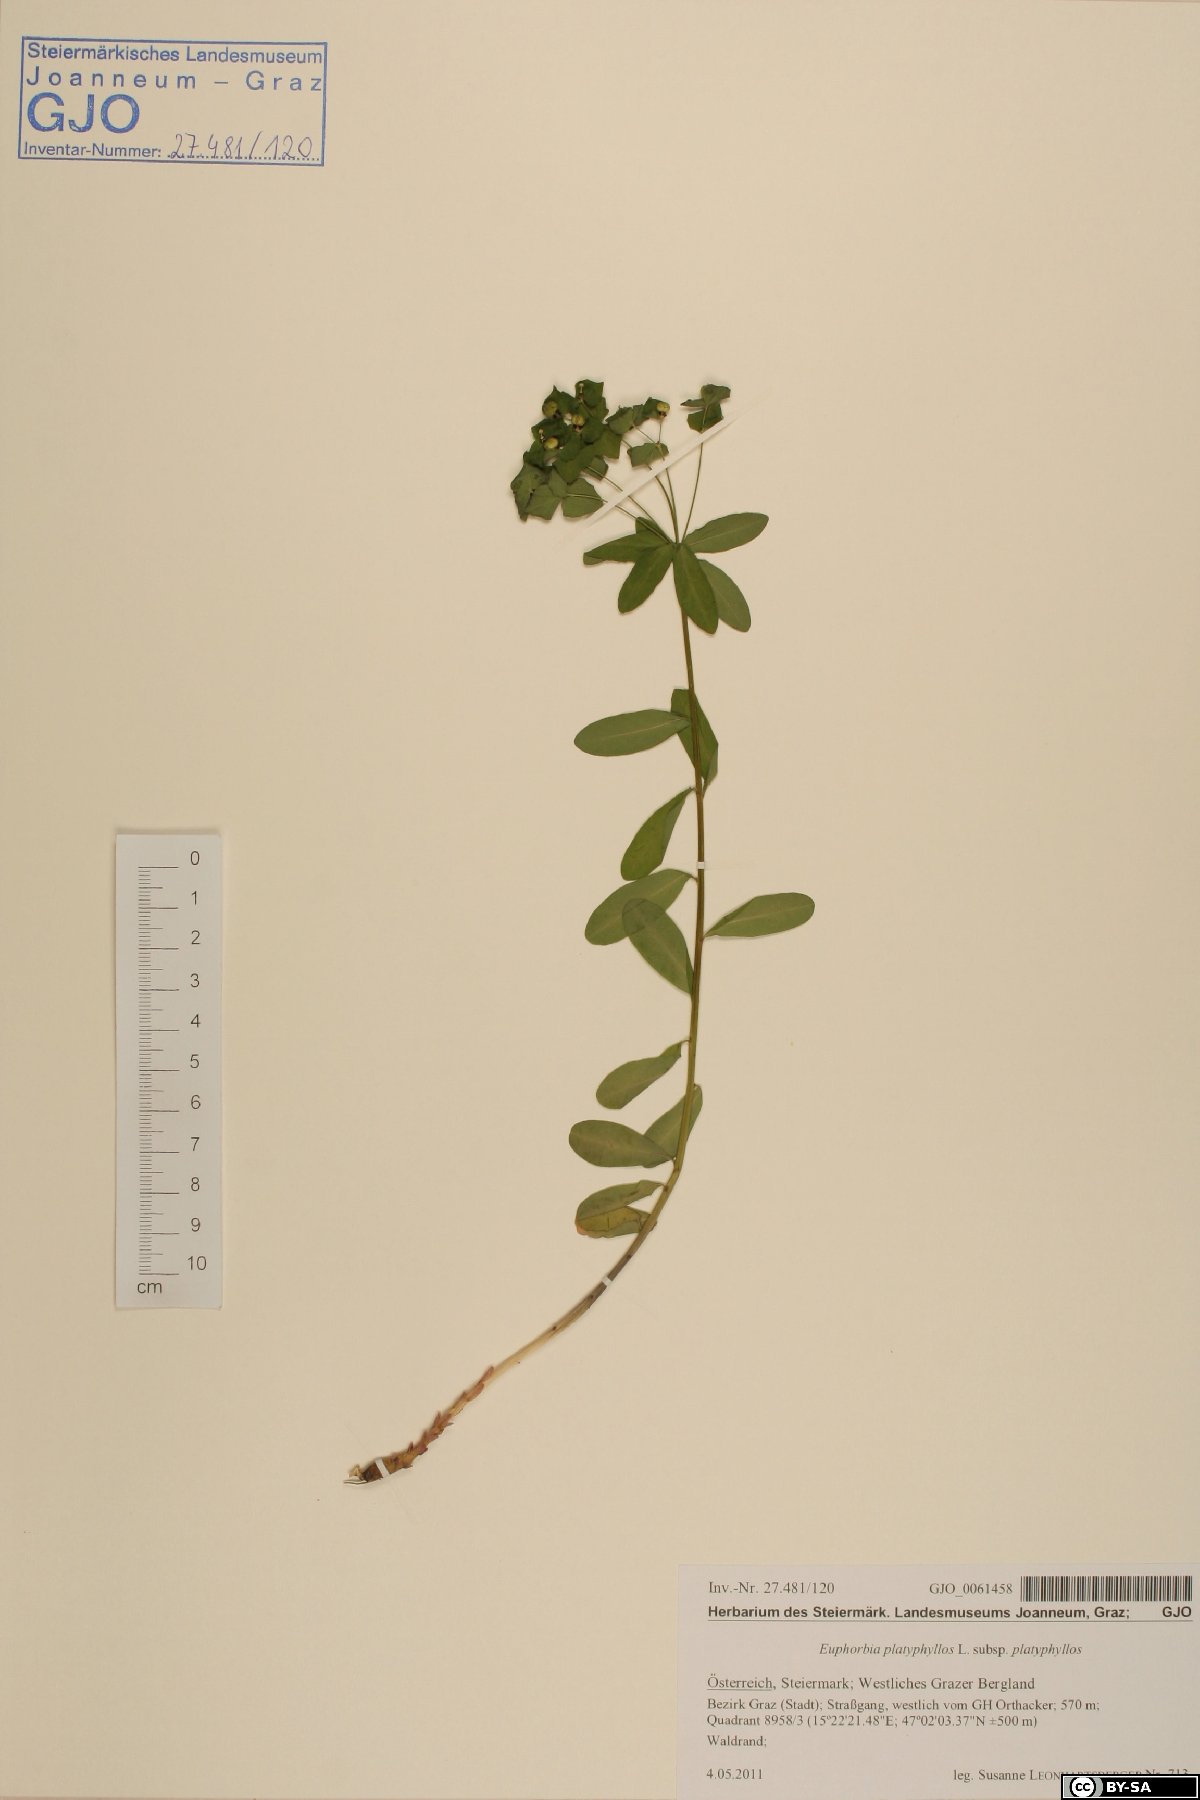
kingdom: Plantae
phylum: Tracheophyta
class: Magnoliopsida
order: Malpighiales
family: Euphorbiaceae
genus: Euphorbia
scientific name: Euphorbia angulata
